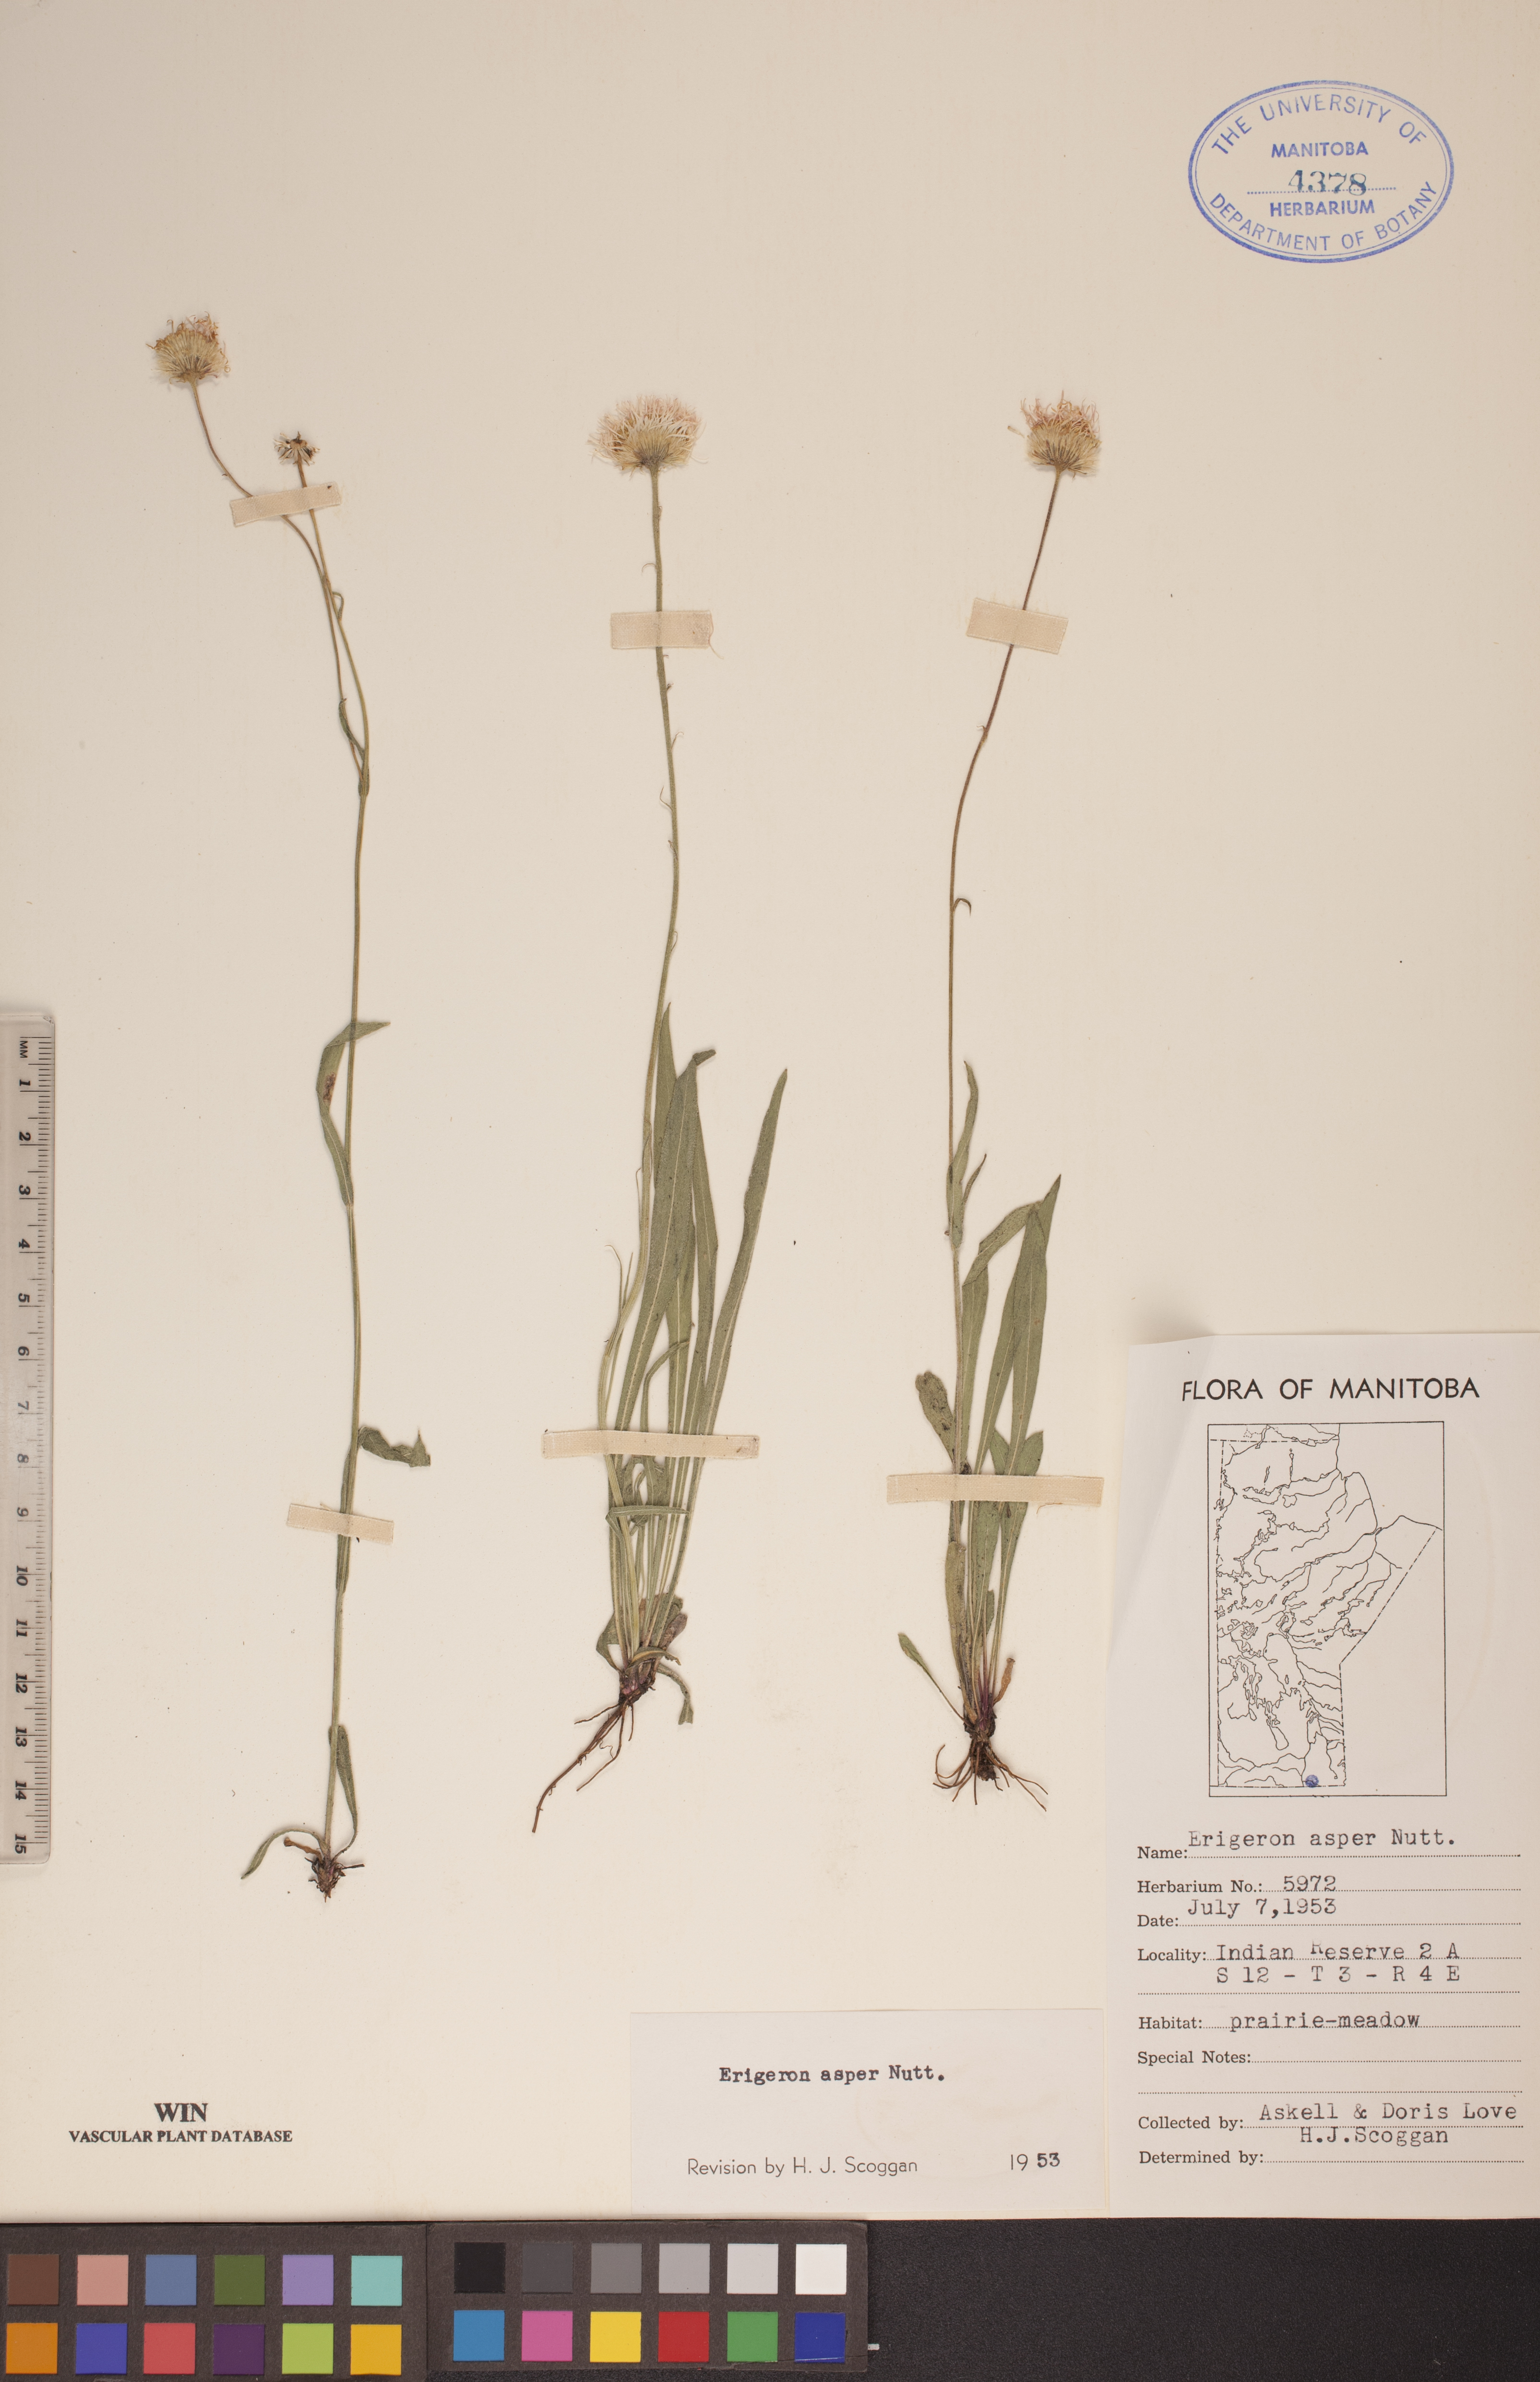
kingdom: Plantae
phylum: Tracheophyta
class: Magnoliopsida
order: Asterales
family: Asteraceae
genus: Erigeron
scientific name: Erigeron glabellus
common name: Smooth fleabane
